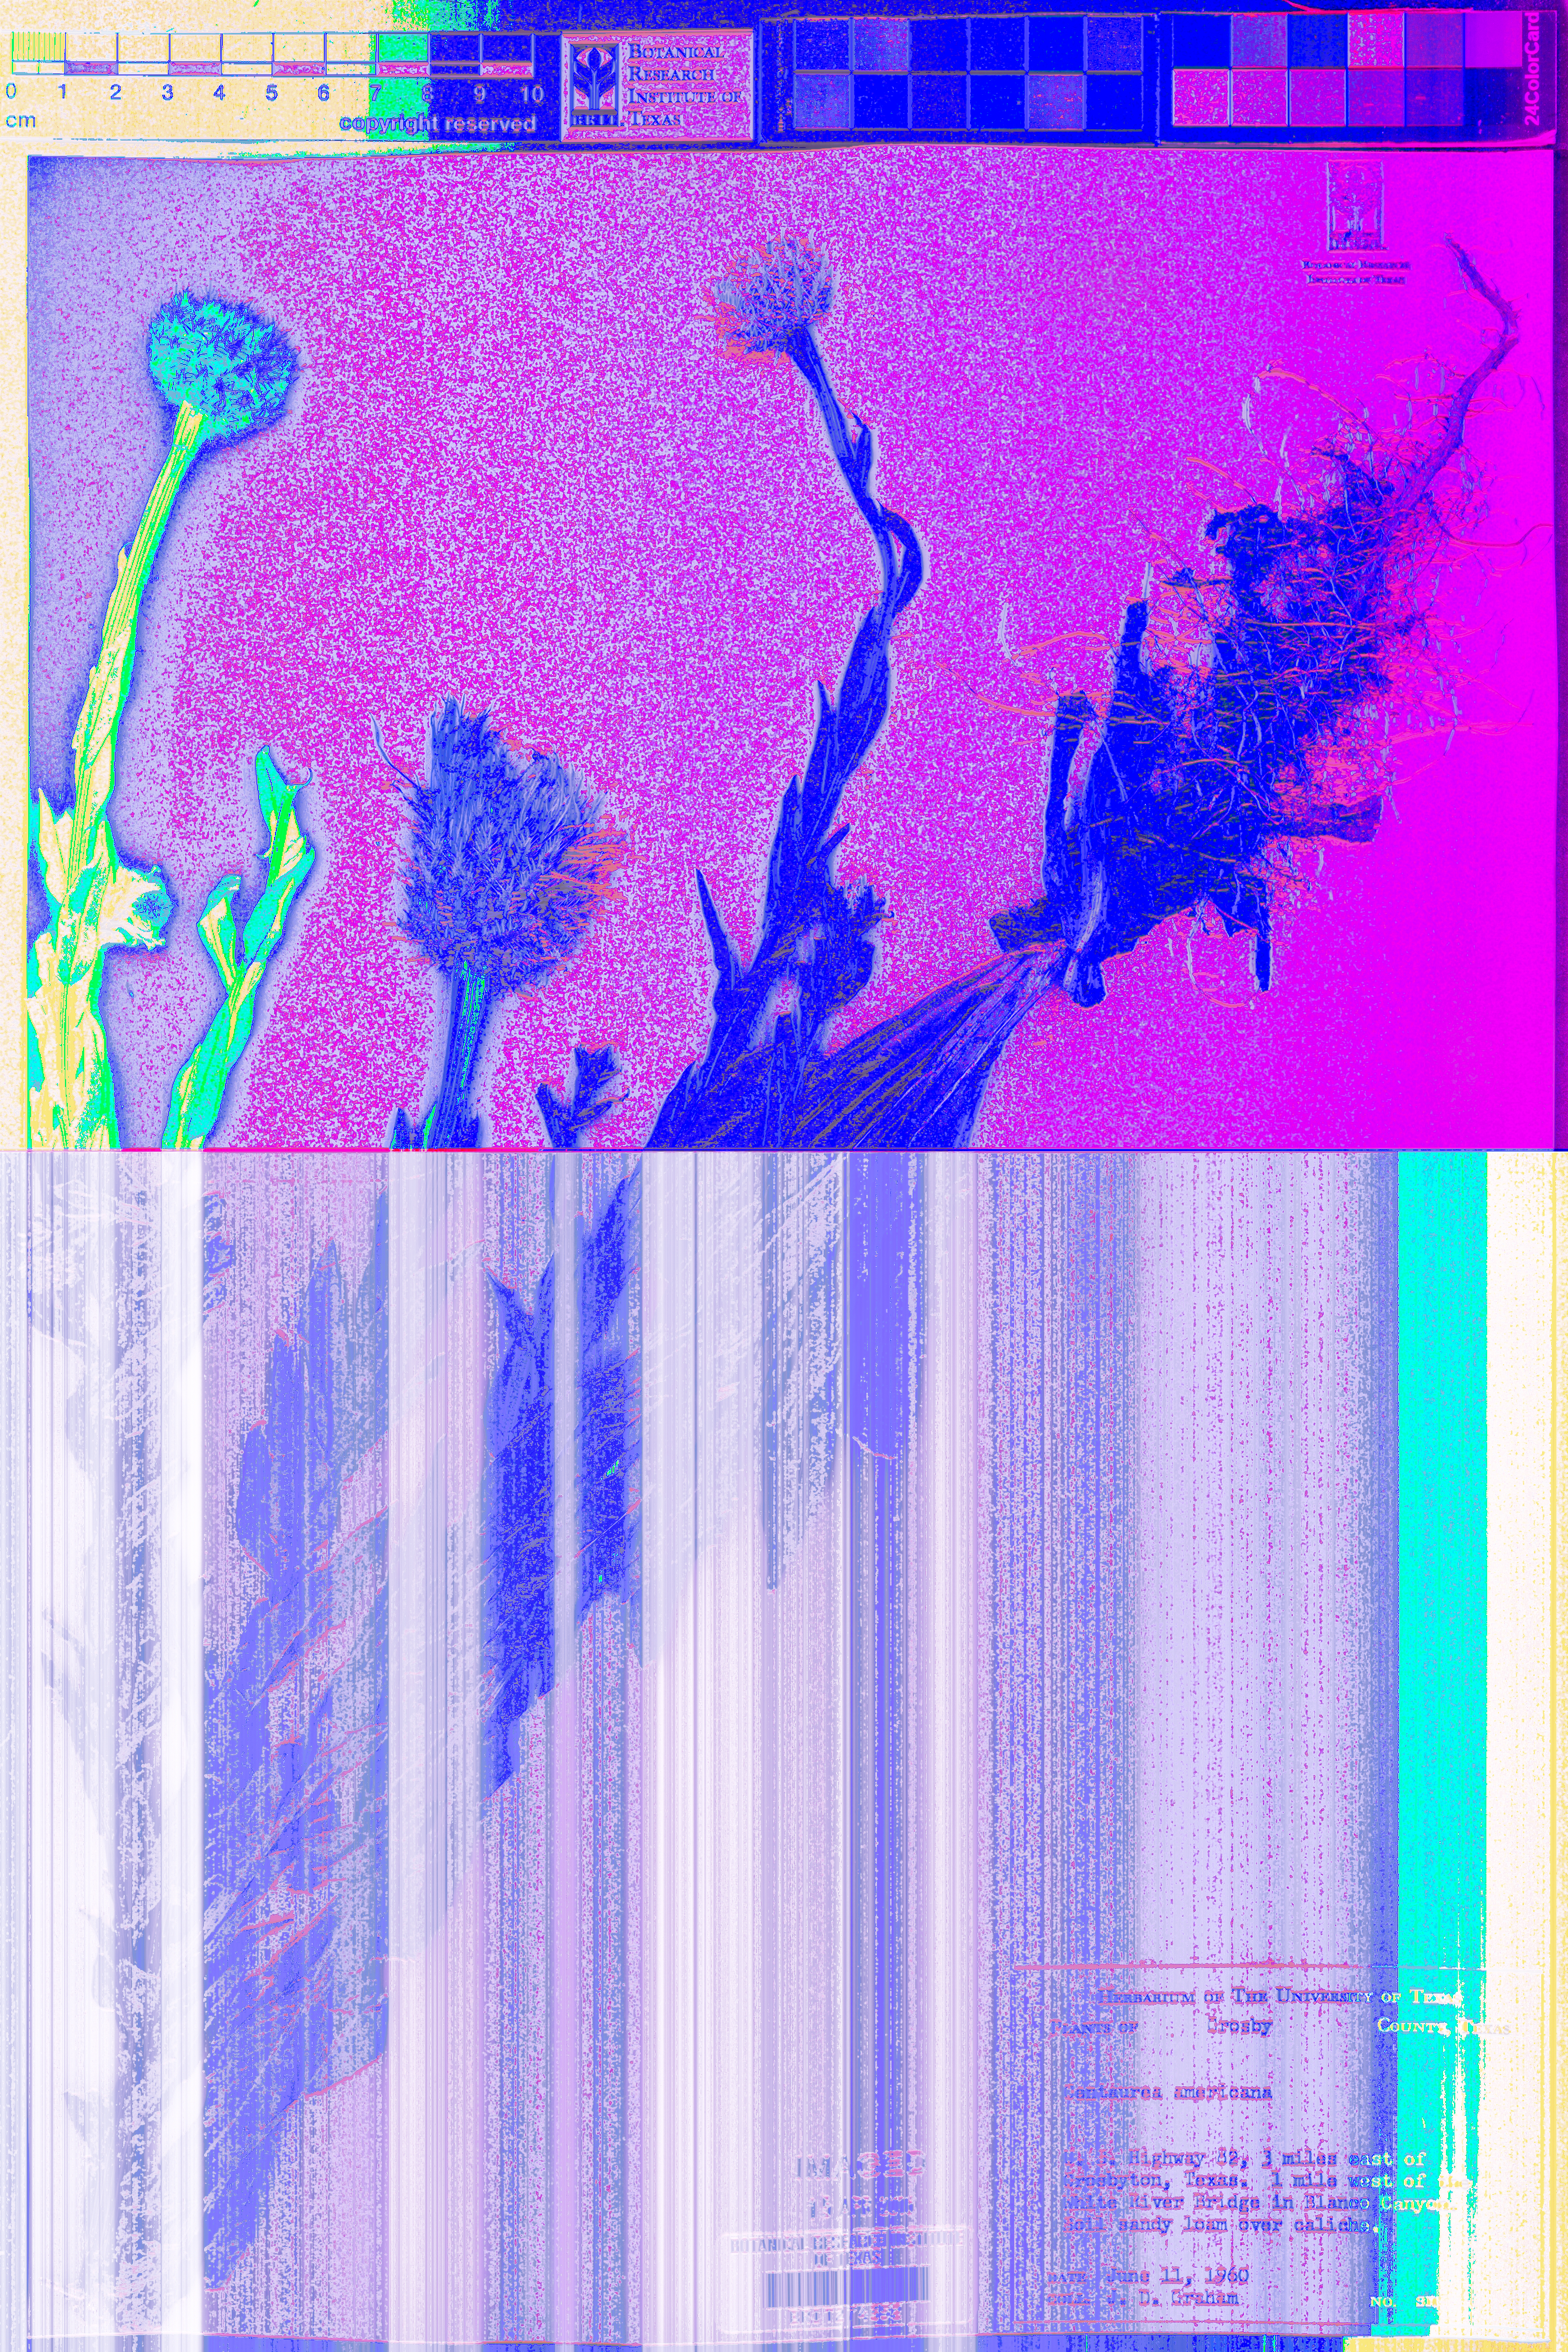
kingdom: Plantae
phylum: Tracheophyta
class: Magnoliopsida
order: Asterales
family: Asteraceae
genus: Plectocephalus
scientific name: Plectocephalus americanus
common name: American basket-flower
